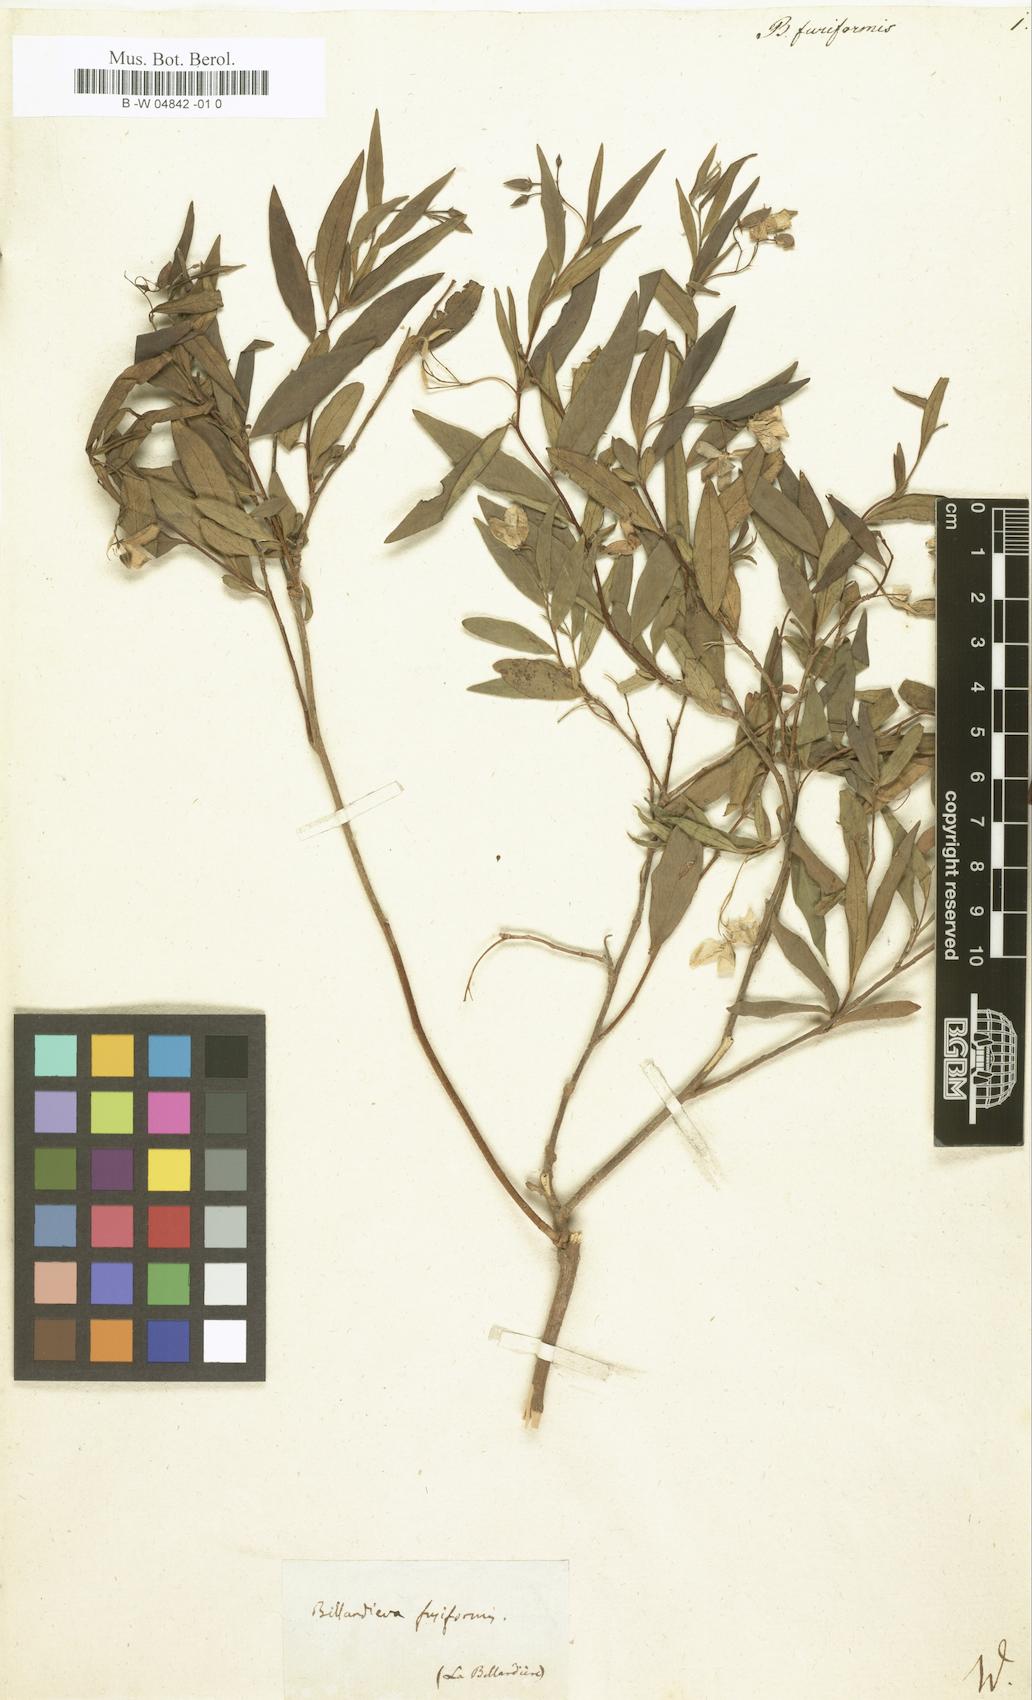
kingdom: Plantae
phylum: Tracheophyta
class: Magnoliopsida
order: Apiales
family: Pittosporaceae
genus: Billardiera
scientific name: Billardiera fusiformis
